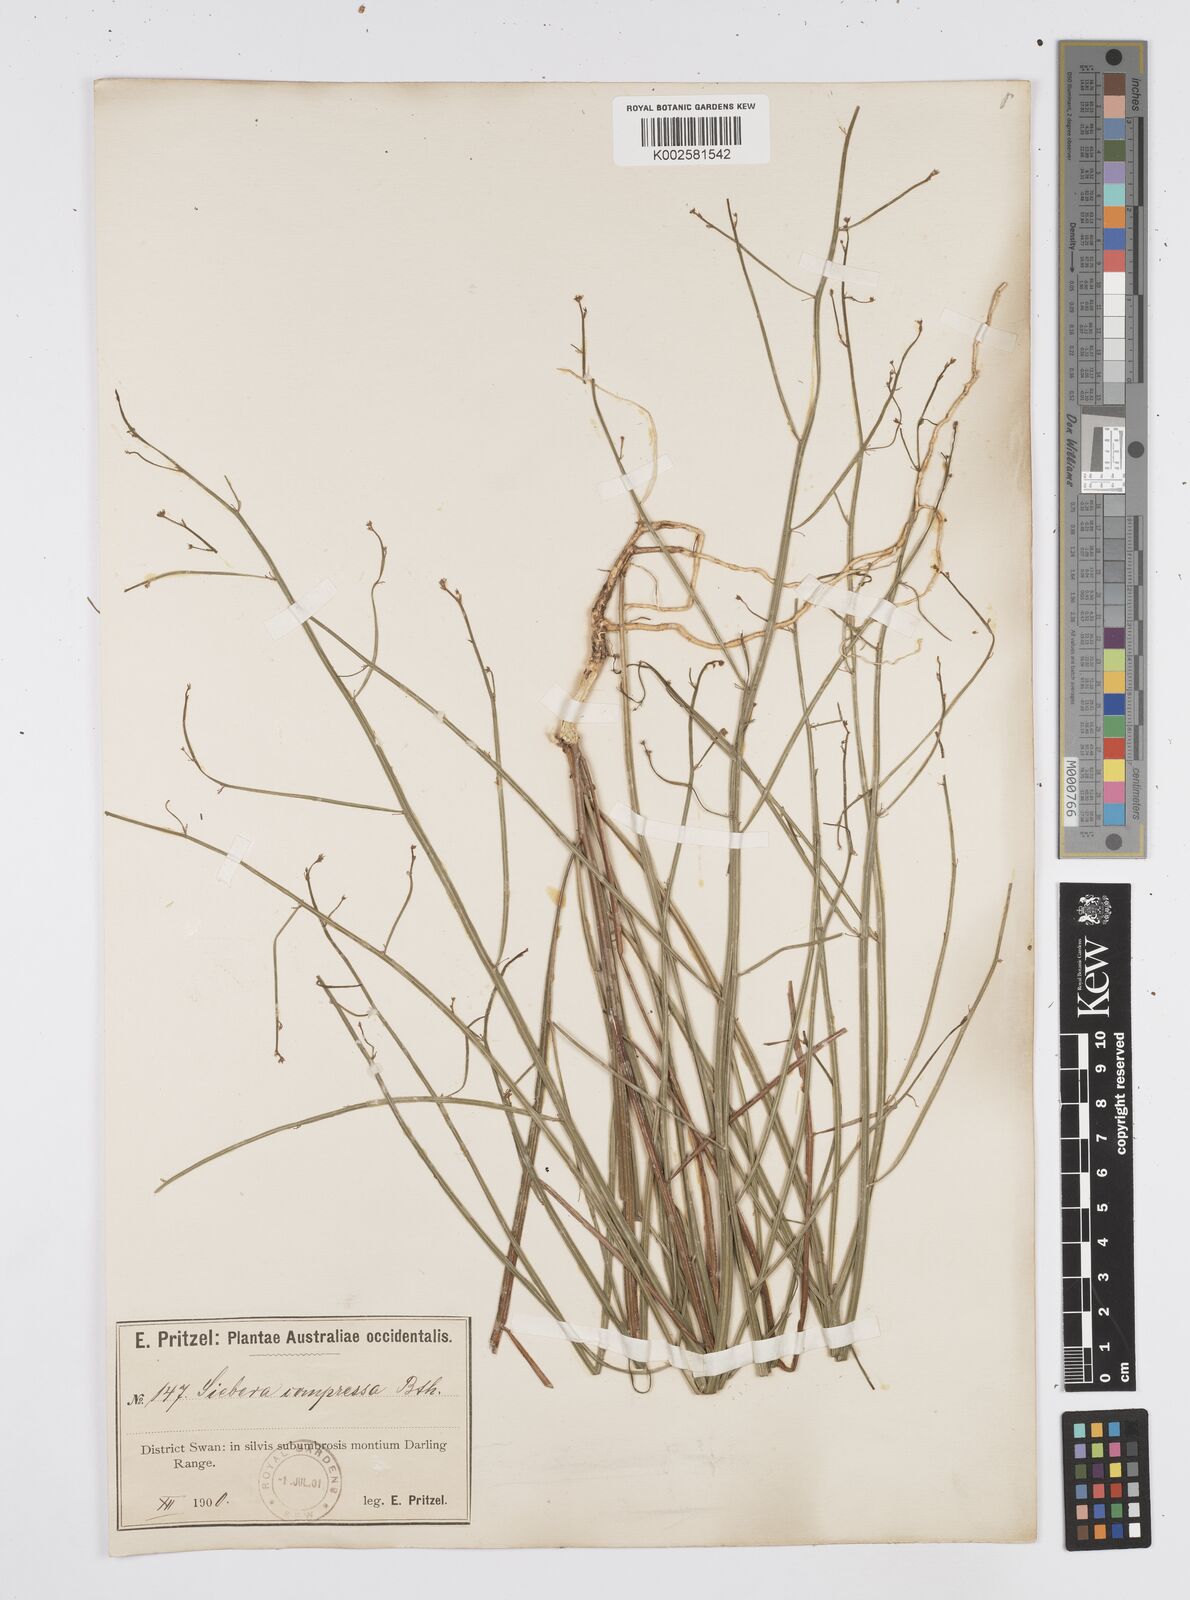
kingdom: Plantae
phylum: Tracheophyta
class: Magnoliopsida
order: Apiales
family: Apiaceae
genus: Centella
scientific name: Centella
